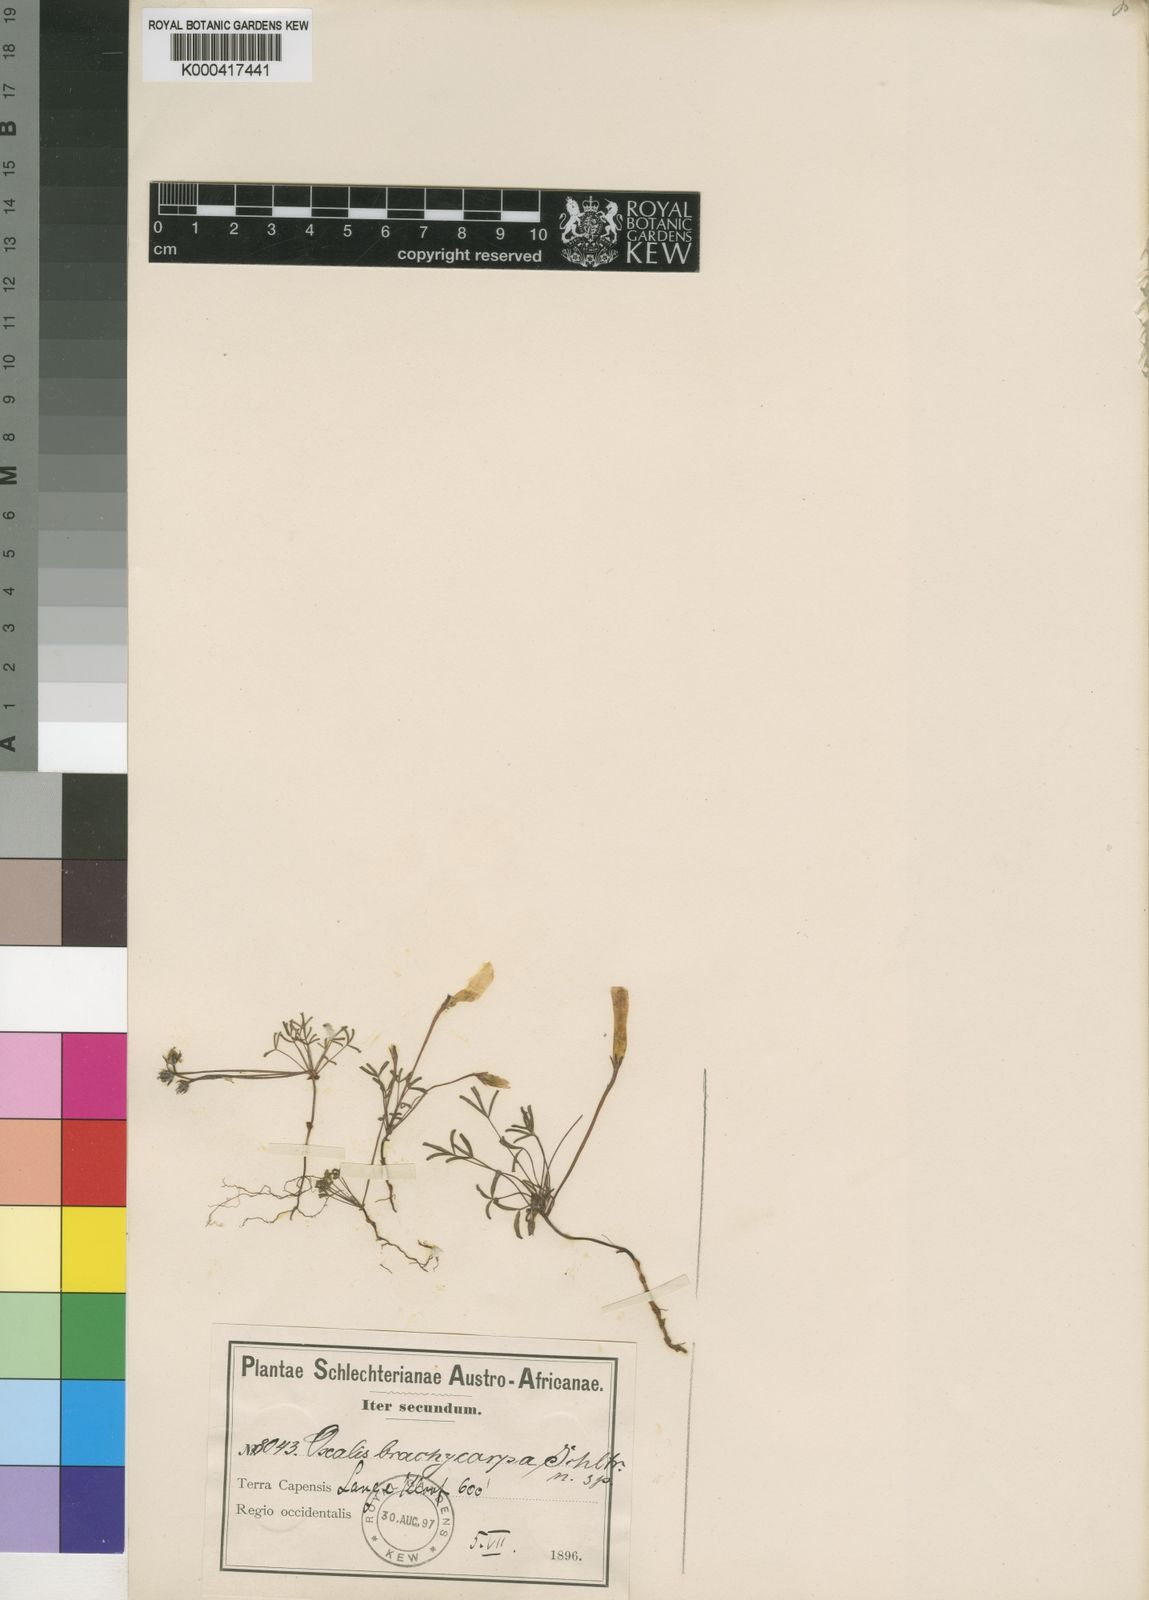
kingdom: Plantae
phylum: Tracheophyta
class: Magnoliopsida
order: Oxalidales
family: Oxalidaceae
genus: Oxalis
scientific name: Oxalis pallens
